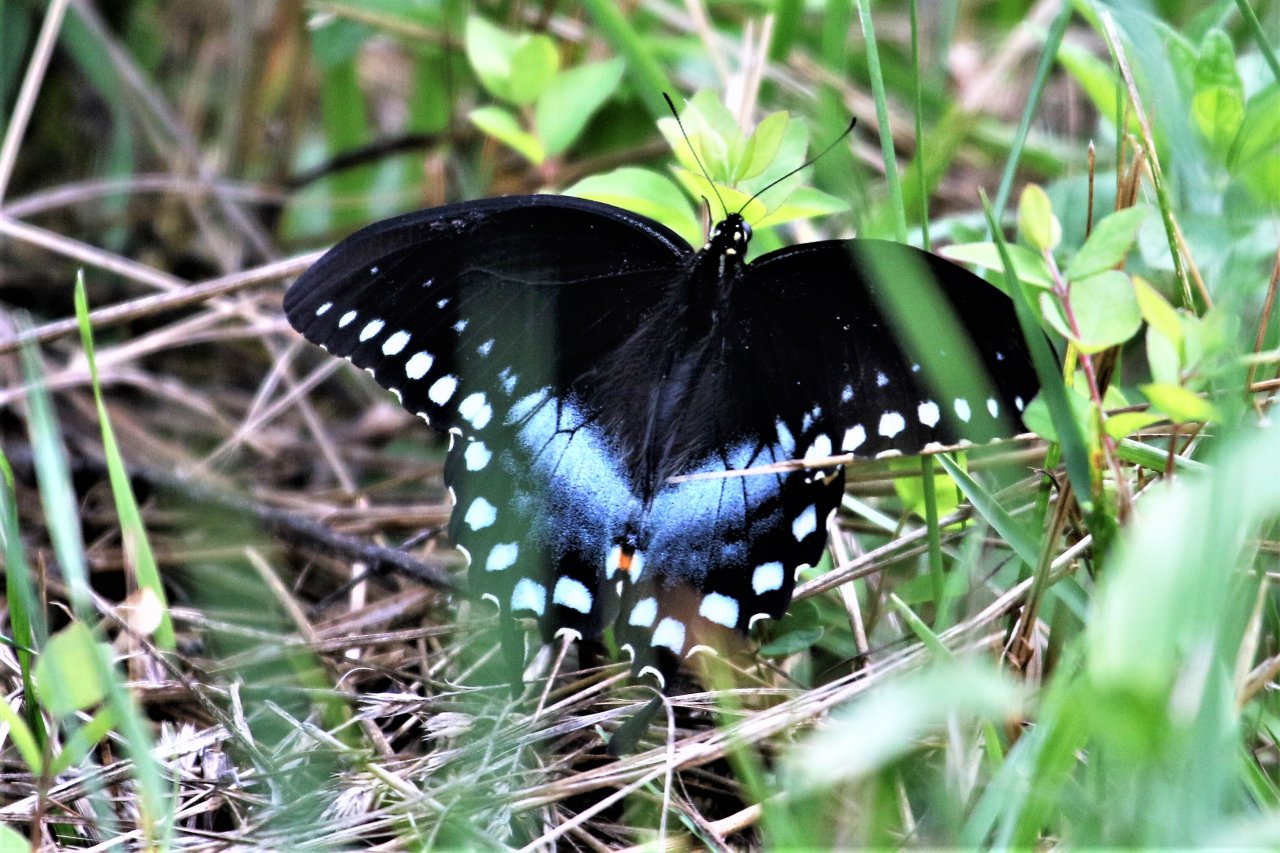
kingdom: Animalia
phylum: Arthropoda
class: Insecta
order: Lepidoptera
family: Papilionidae
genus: Pterourus
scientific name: Pterourus troilus
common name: Spicebush Swallowtail
